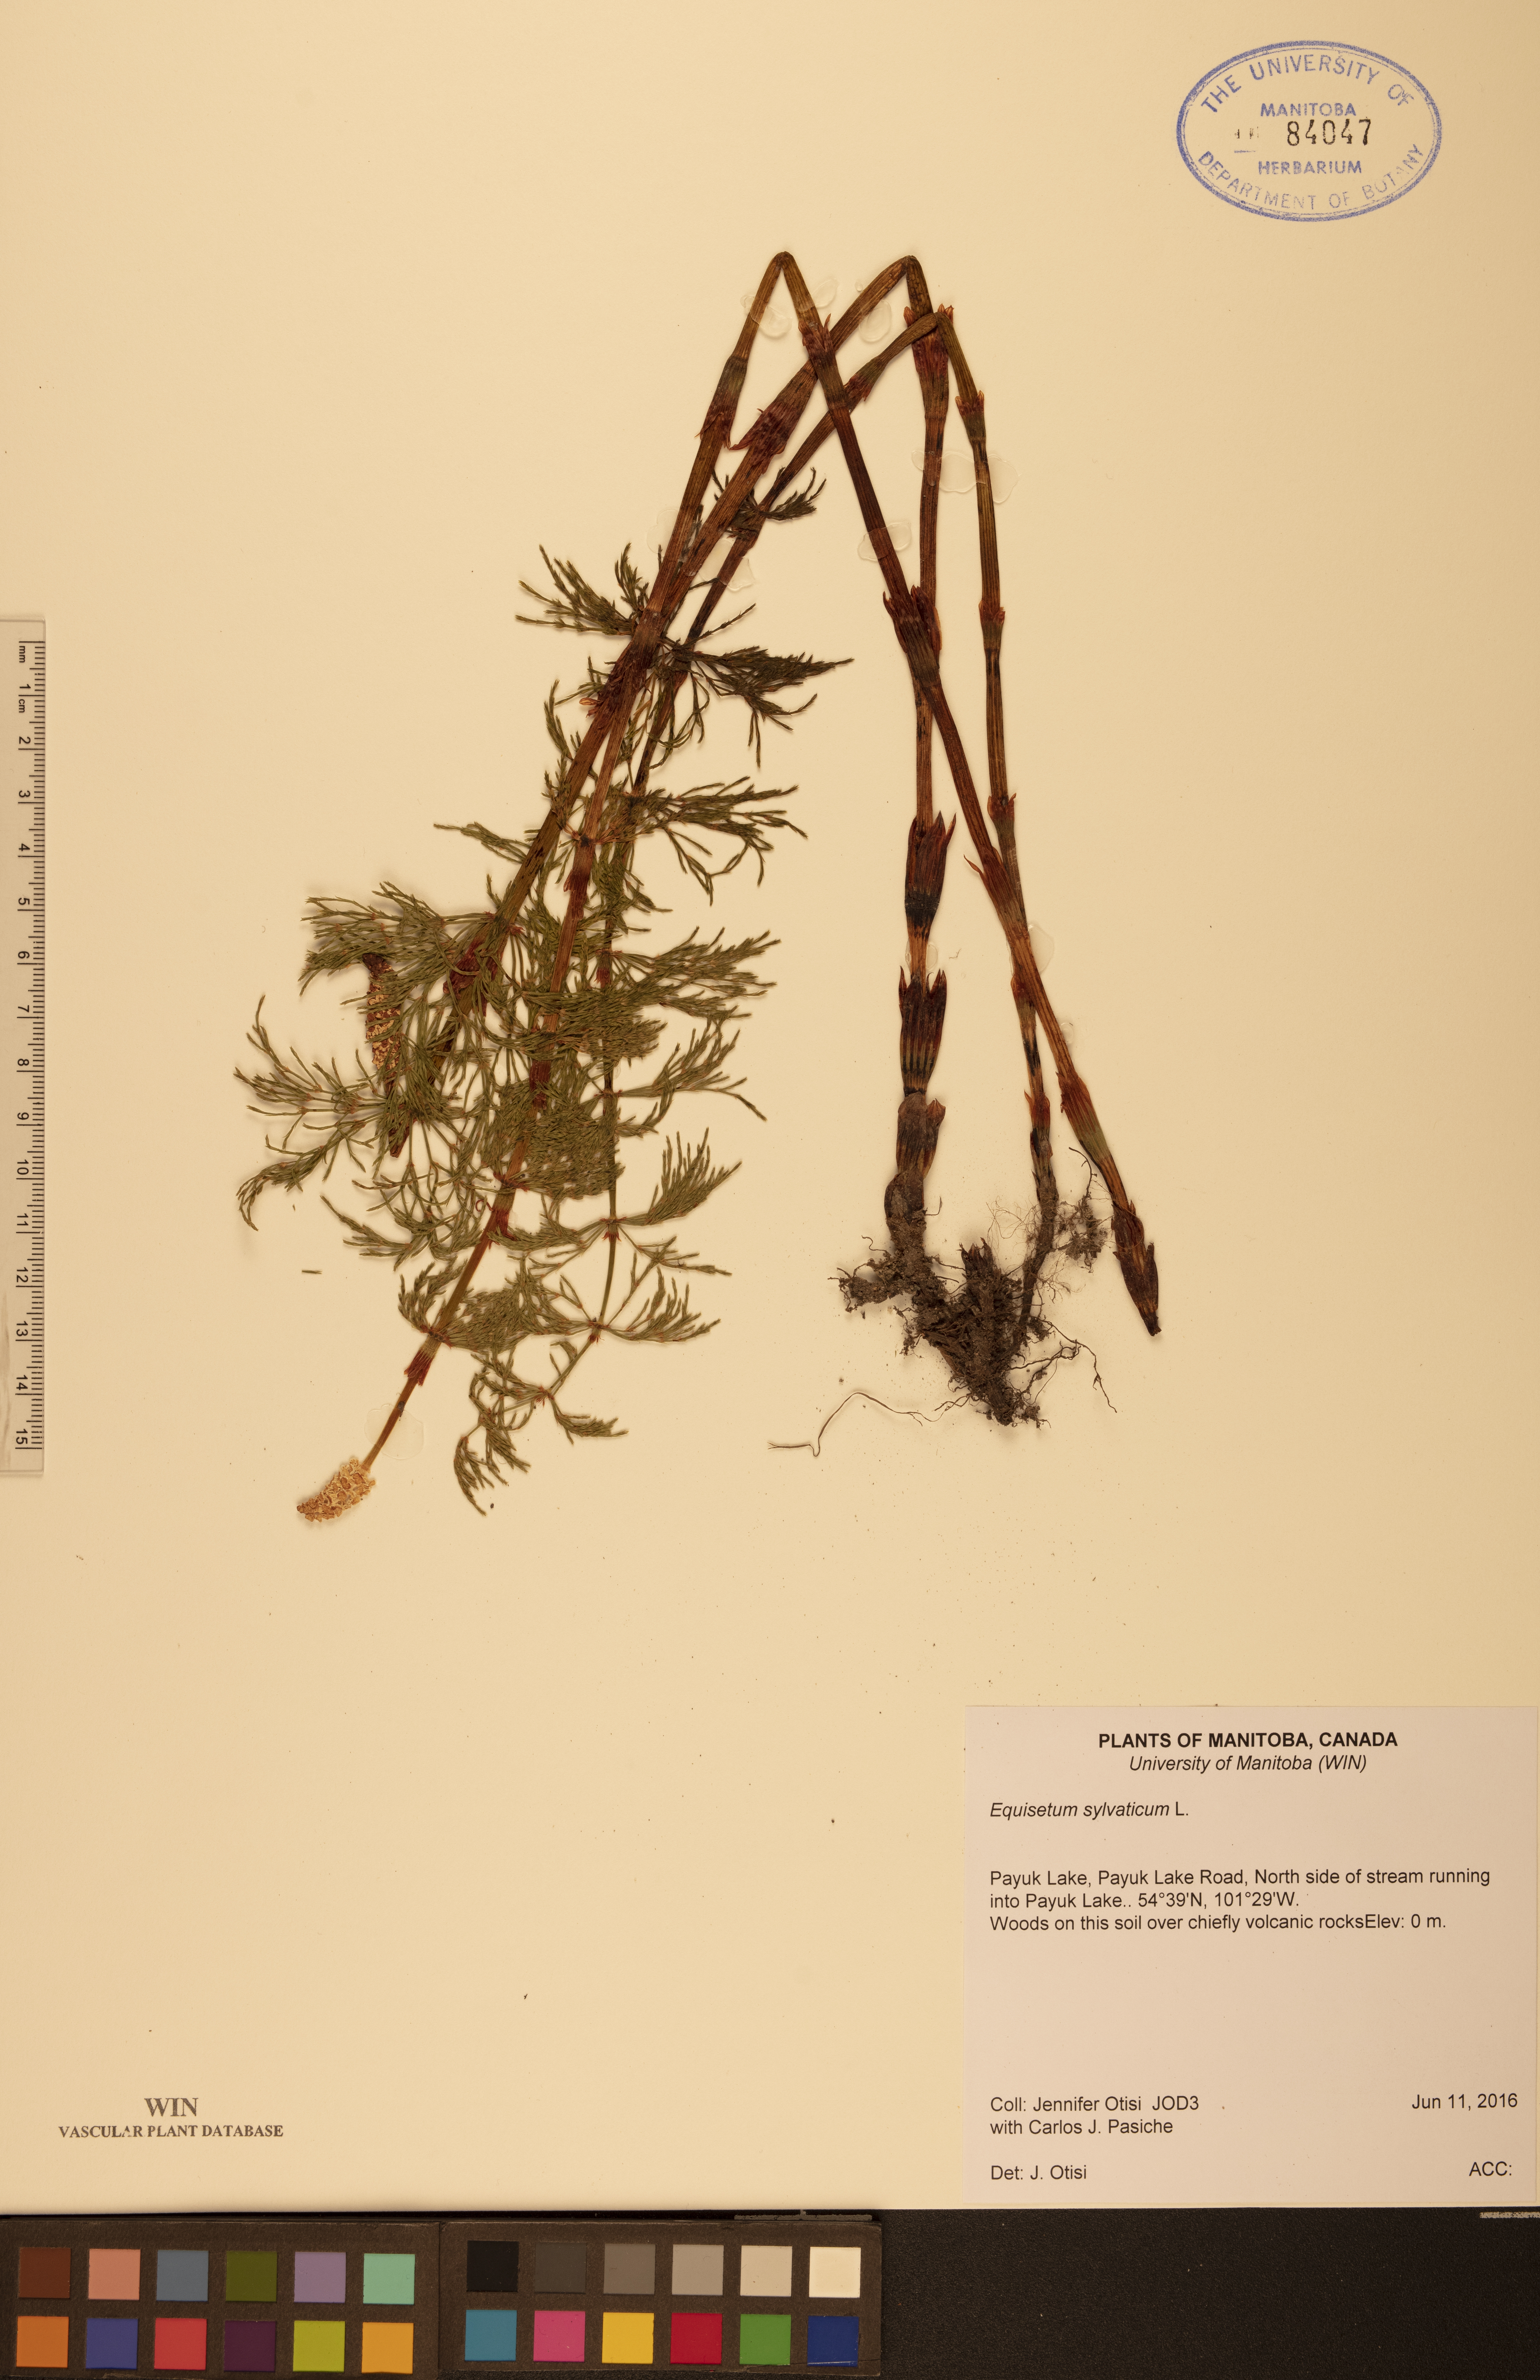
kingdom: Plantae
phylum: Tracheophyta
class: Polypodiopsida
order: Equisetales
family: Equisetaceae
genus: Equisetum
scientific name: Equisetum sylvaticum
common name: Wood horsetail
